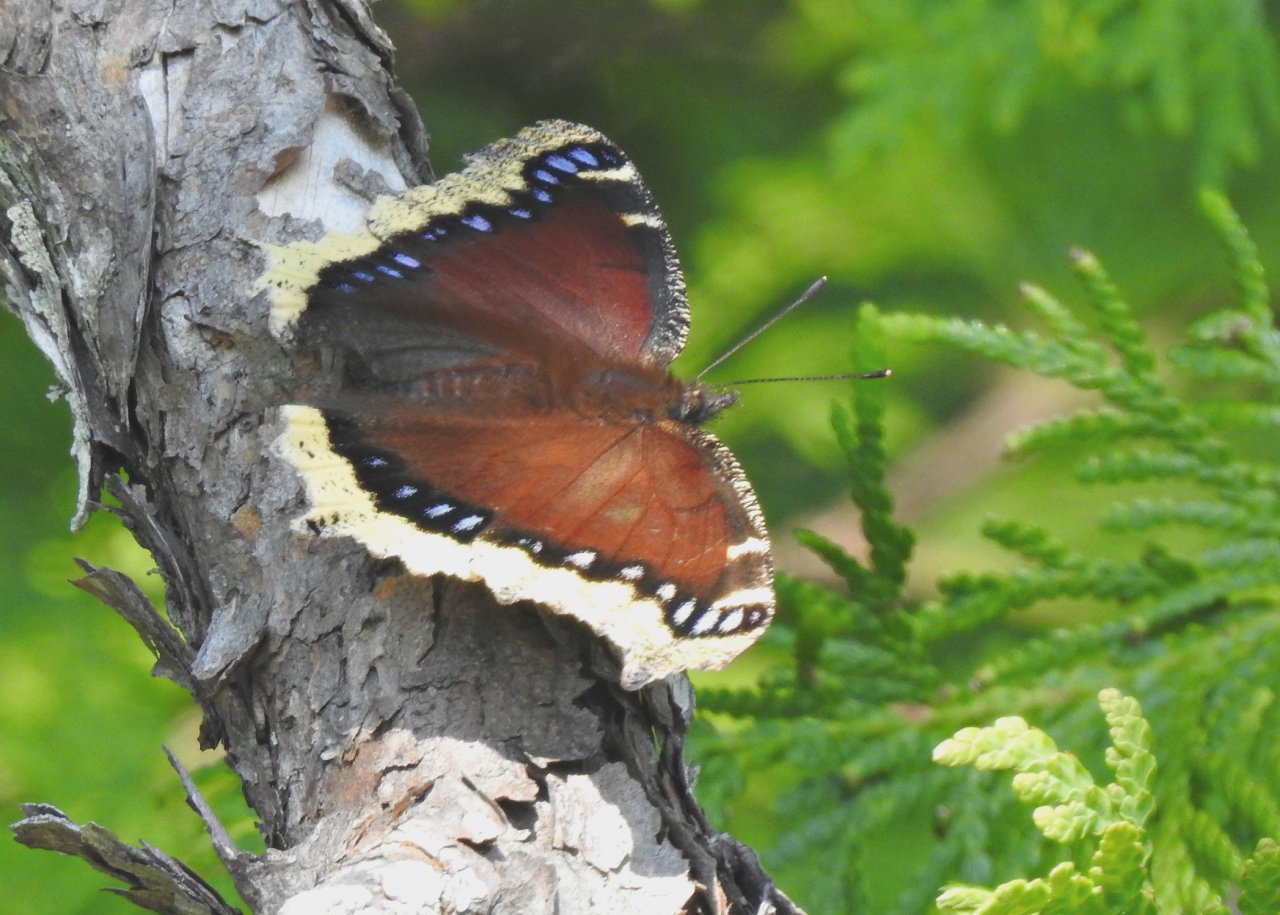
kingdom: Animalia
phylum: Arthropoda
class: Insecta
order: Lepidoptera
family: Nymphalidae
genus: Nymphalis
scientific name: Nymphalis antiopa
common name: Mourning Cloak
